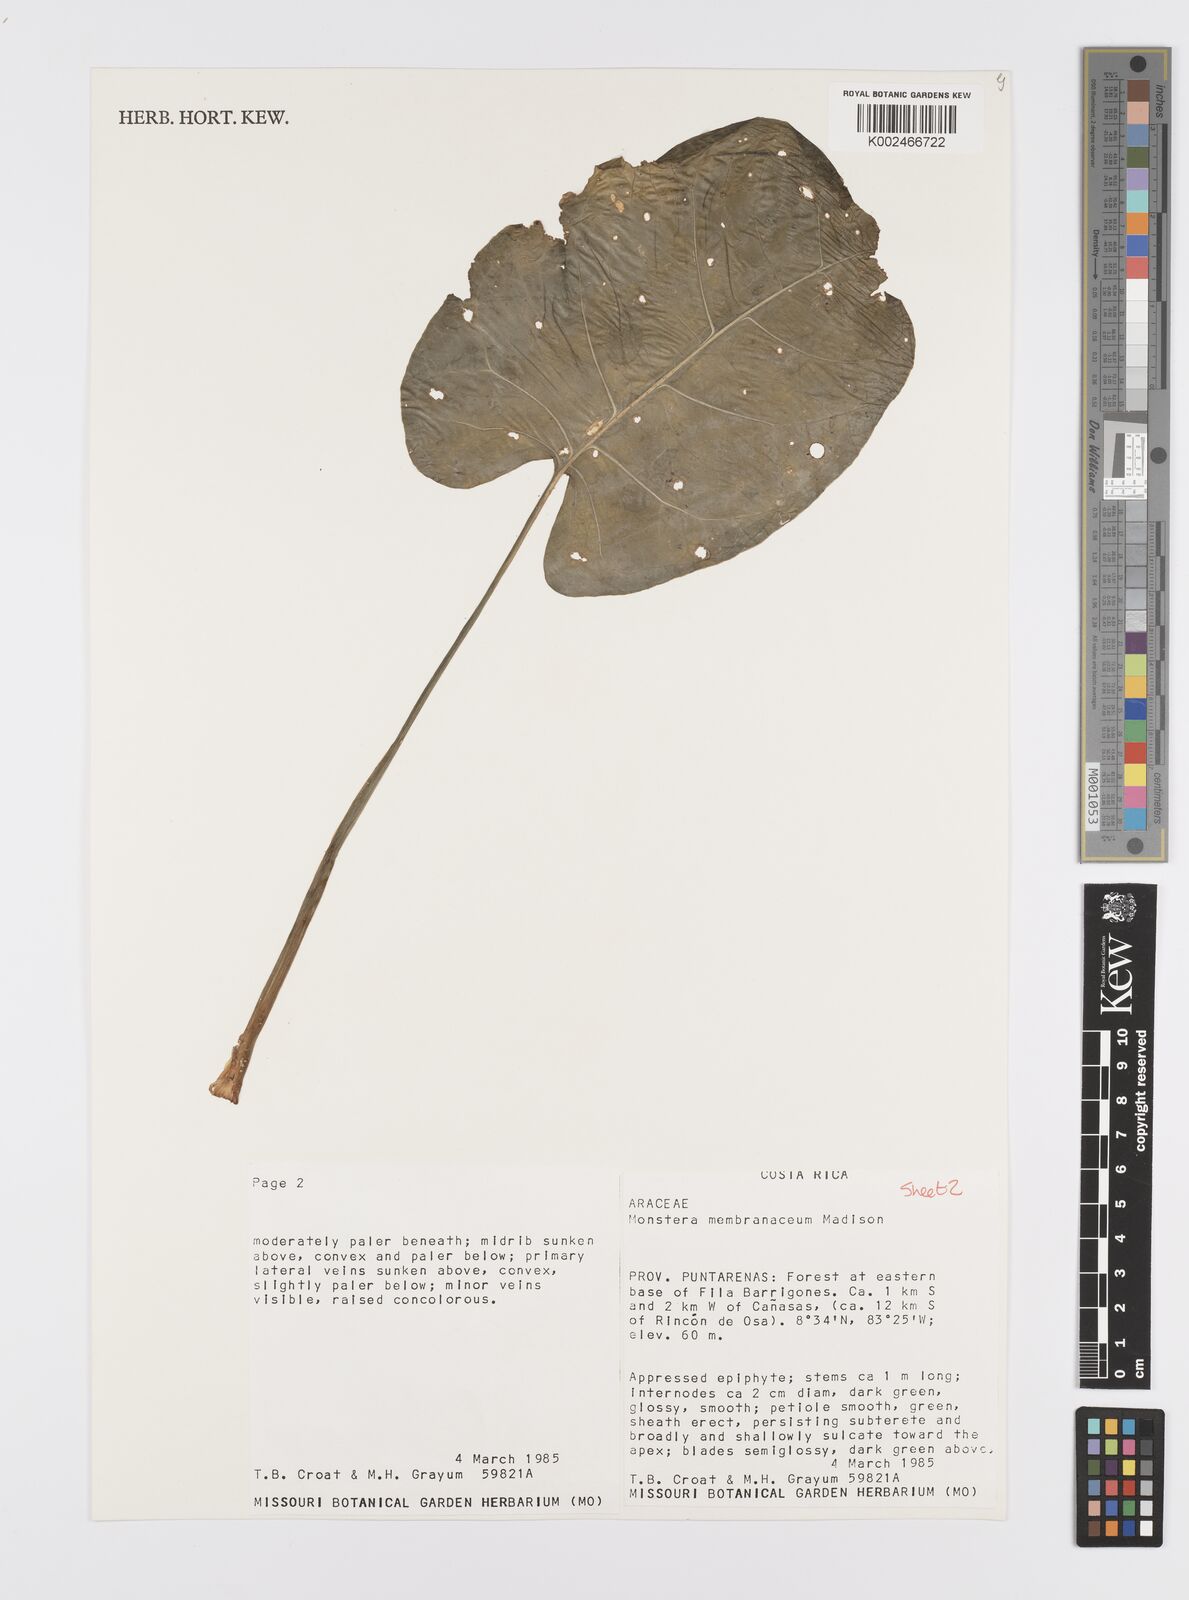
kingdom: Plantae
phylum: Tracheophyta
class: Liliopsida
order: Alismatales
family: Araceae
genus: Monstera
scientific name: Monstera membranacea
